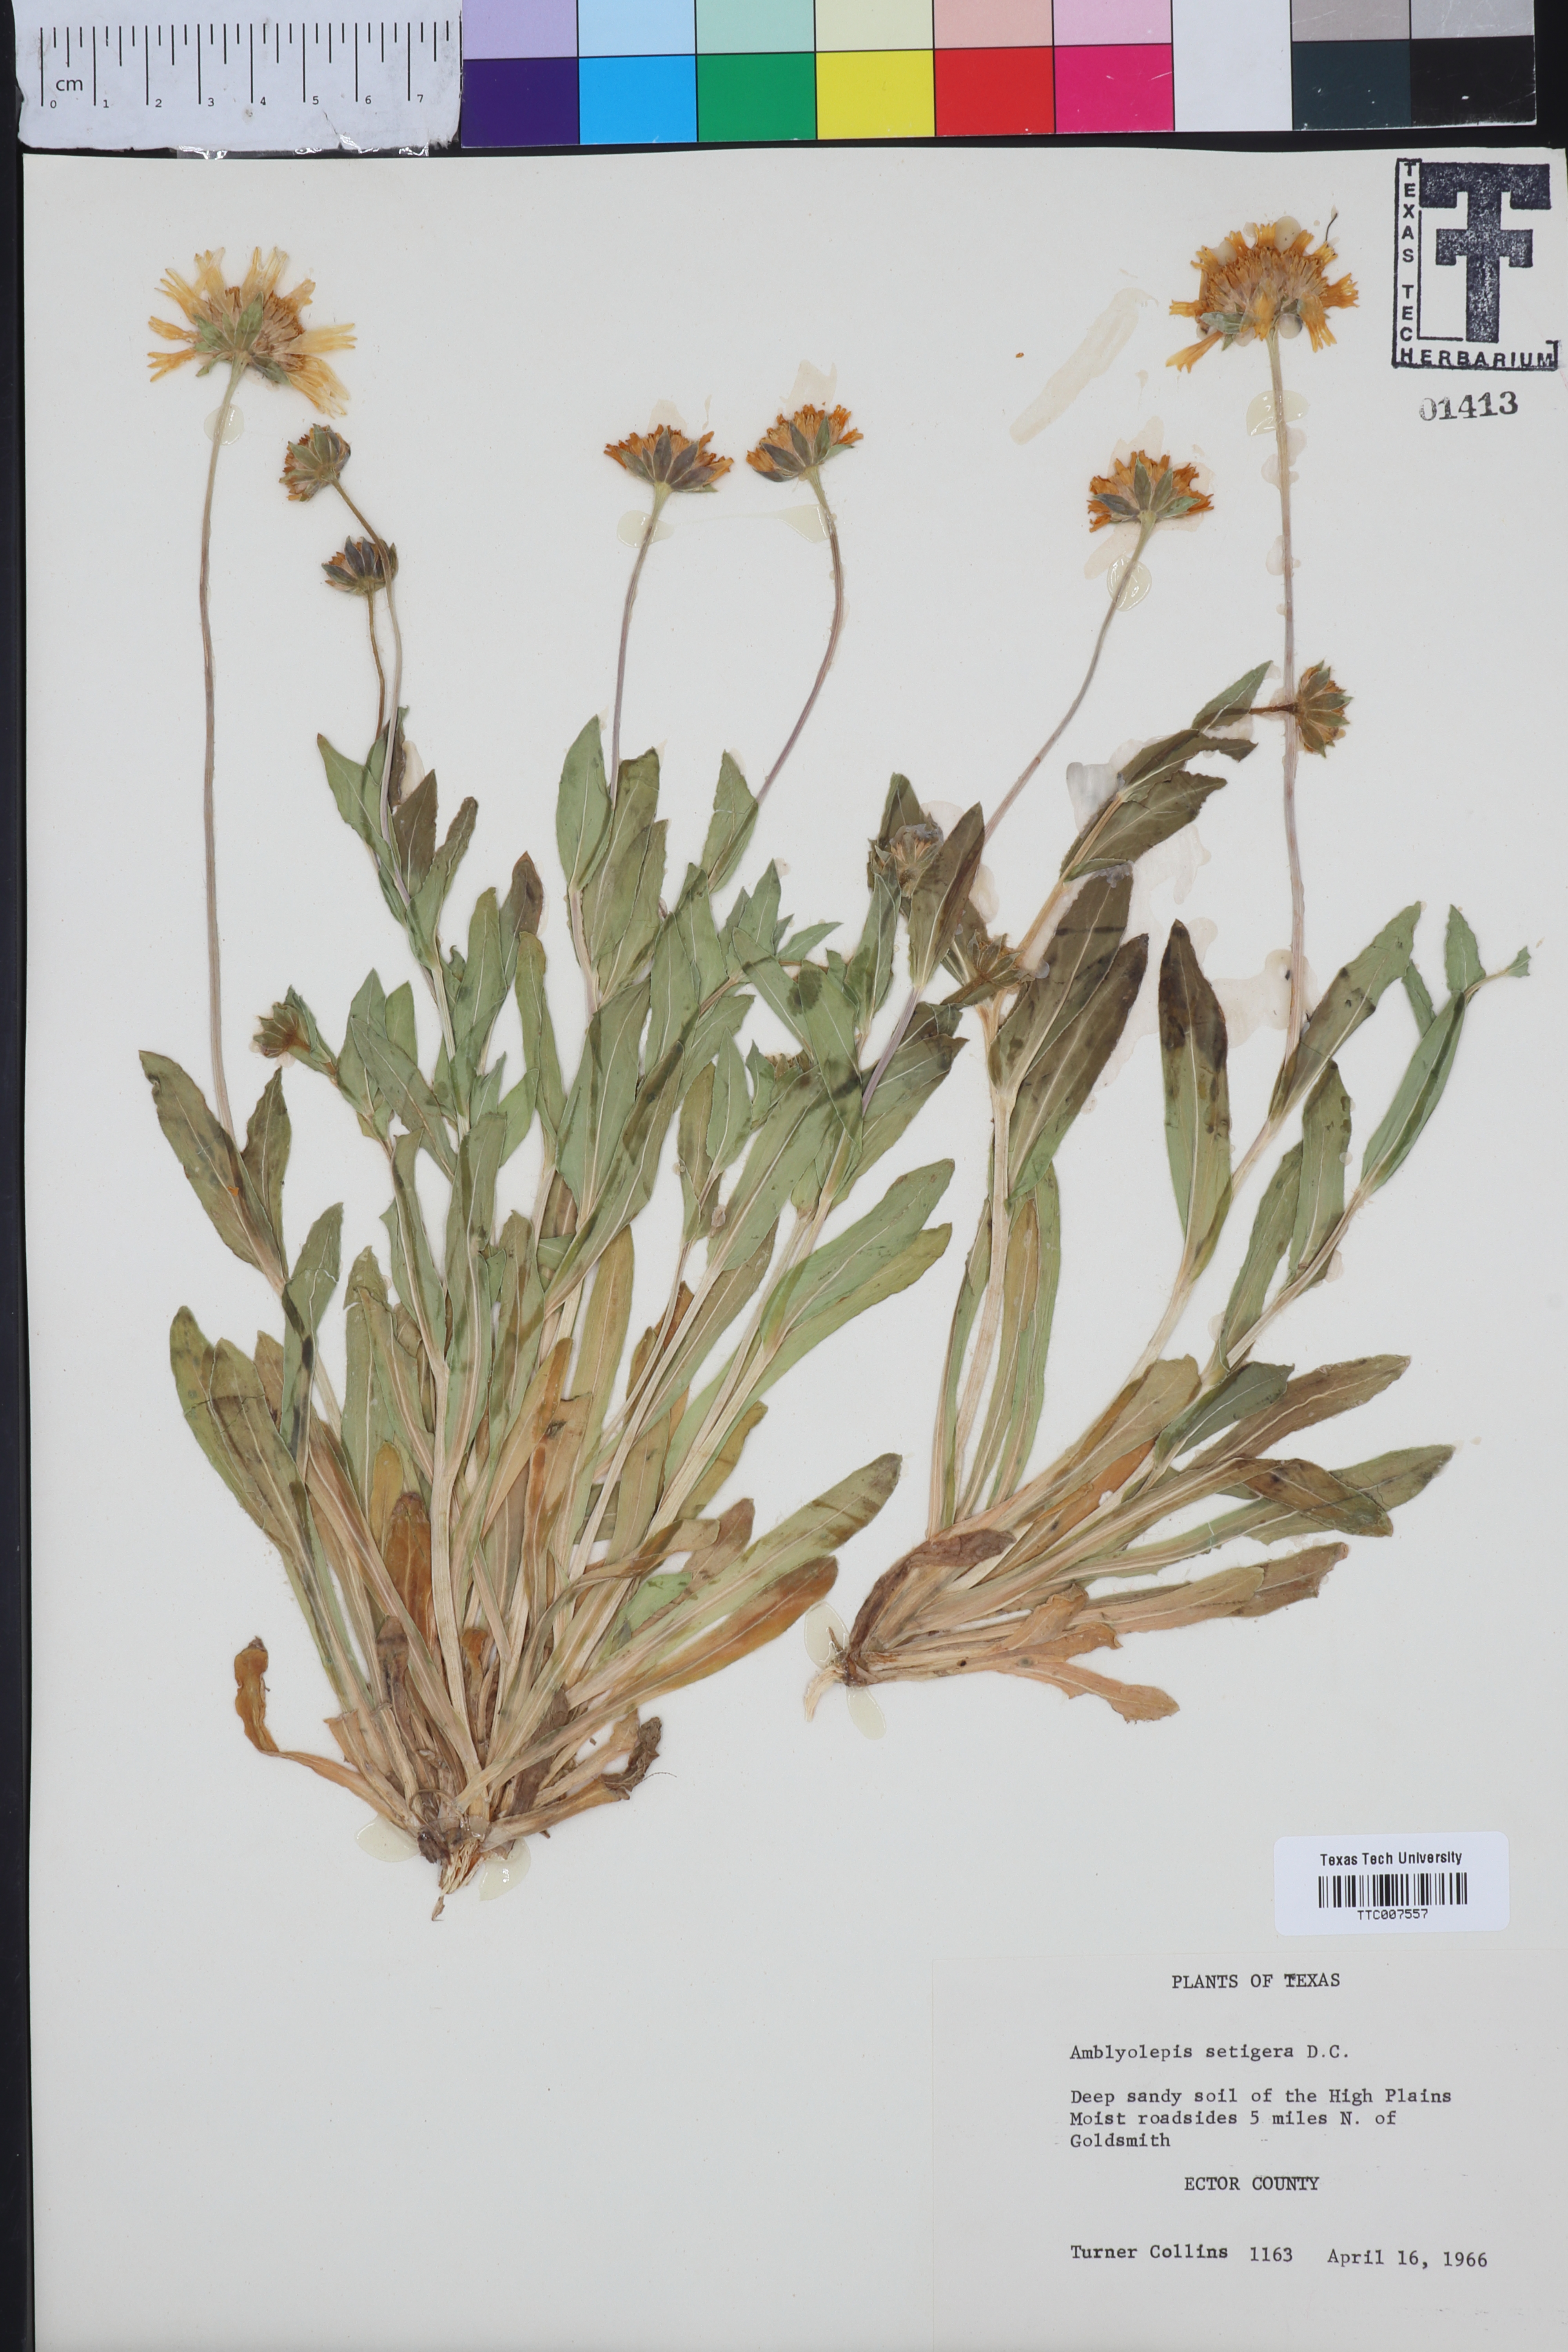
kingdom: Plantae
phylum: Tracheophyta
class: Magnoliopsida
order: Asterales
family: Asteraceae
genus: Amblyolepis
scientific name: Amblyolepis setigera
